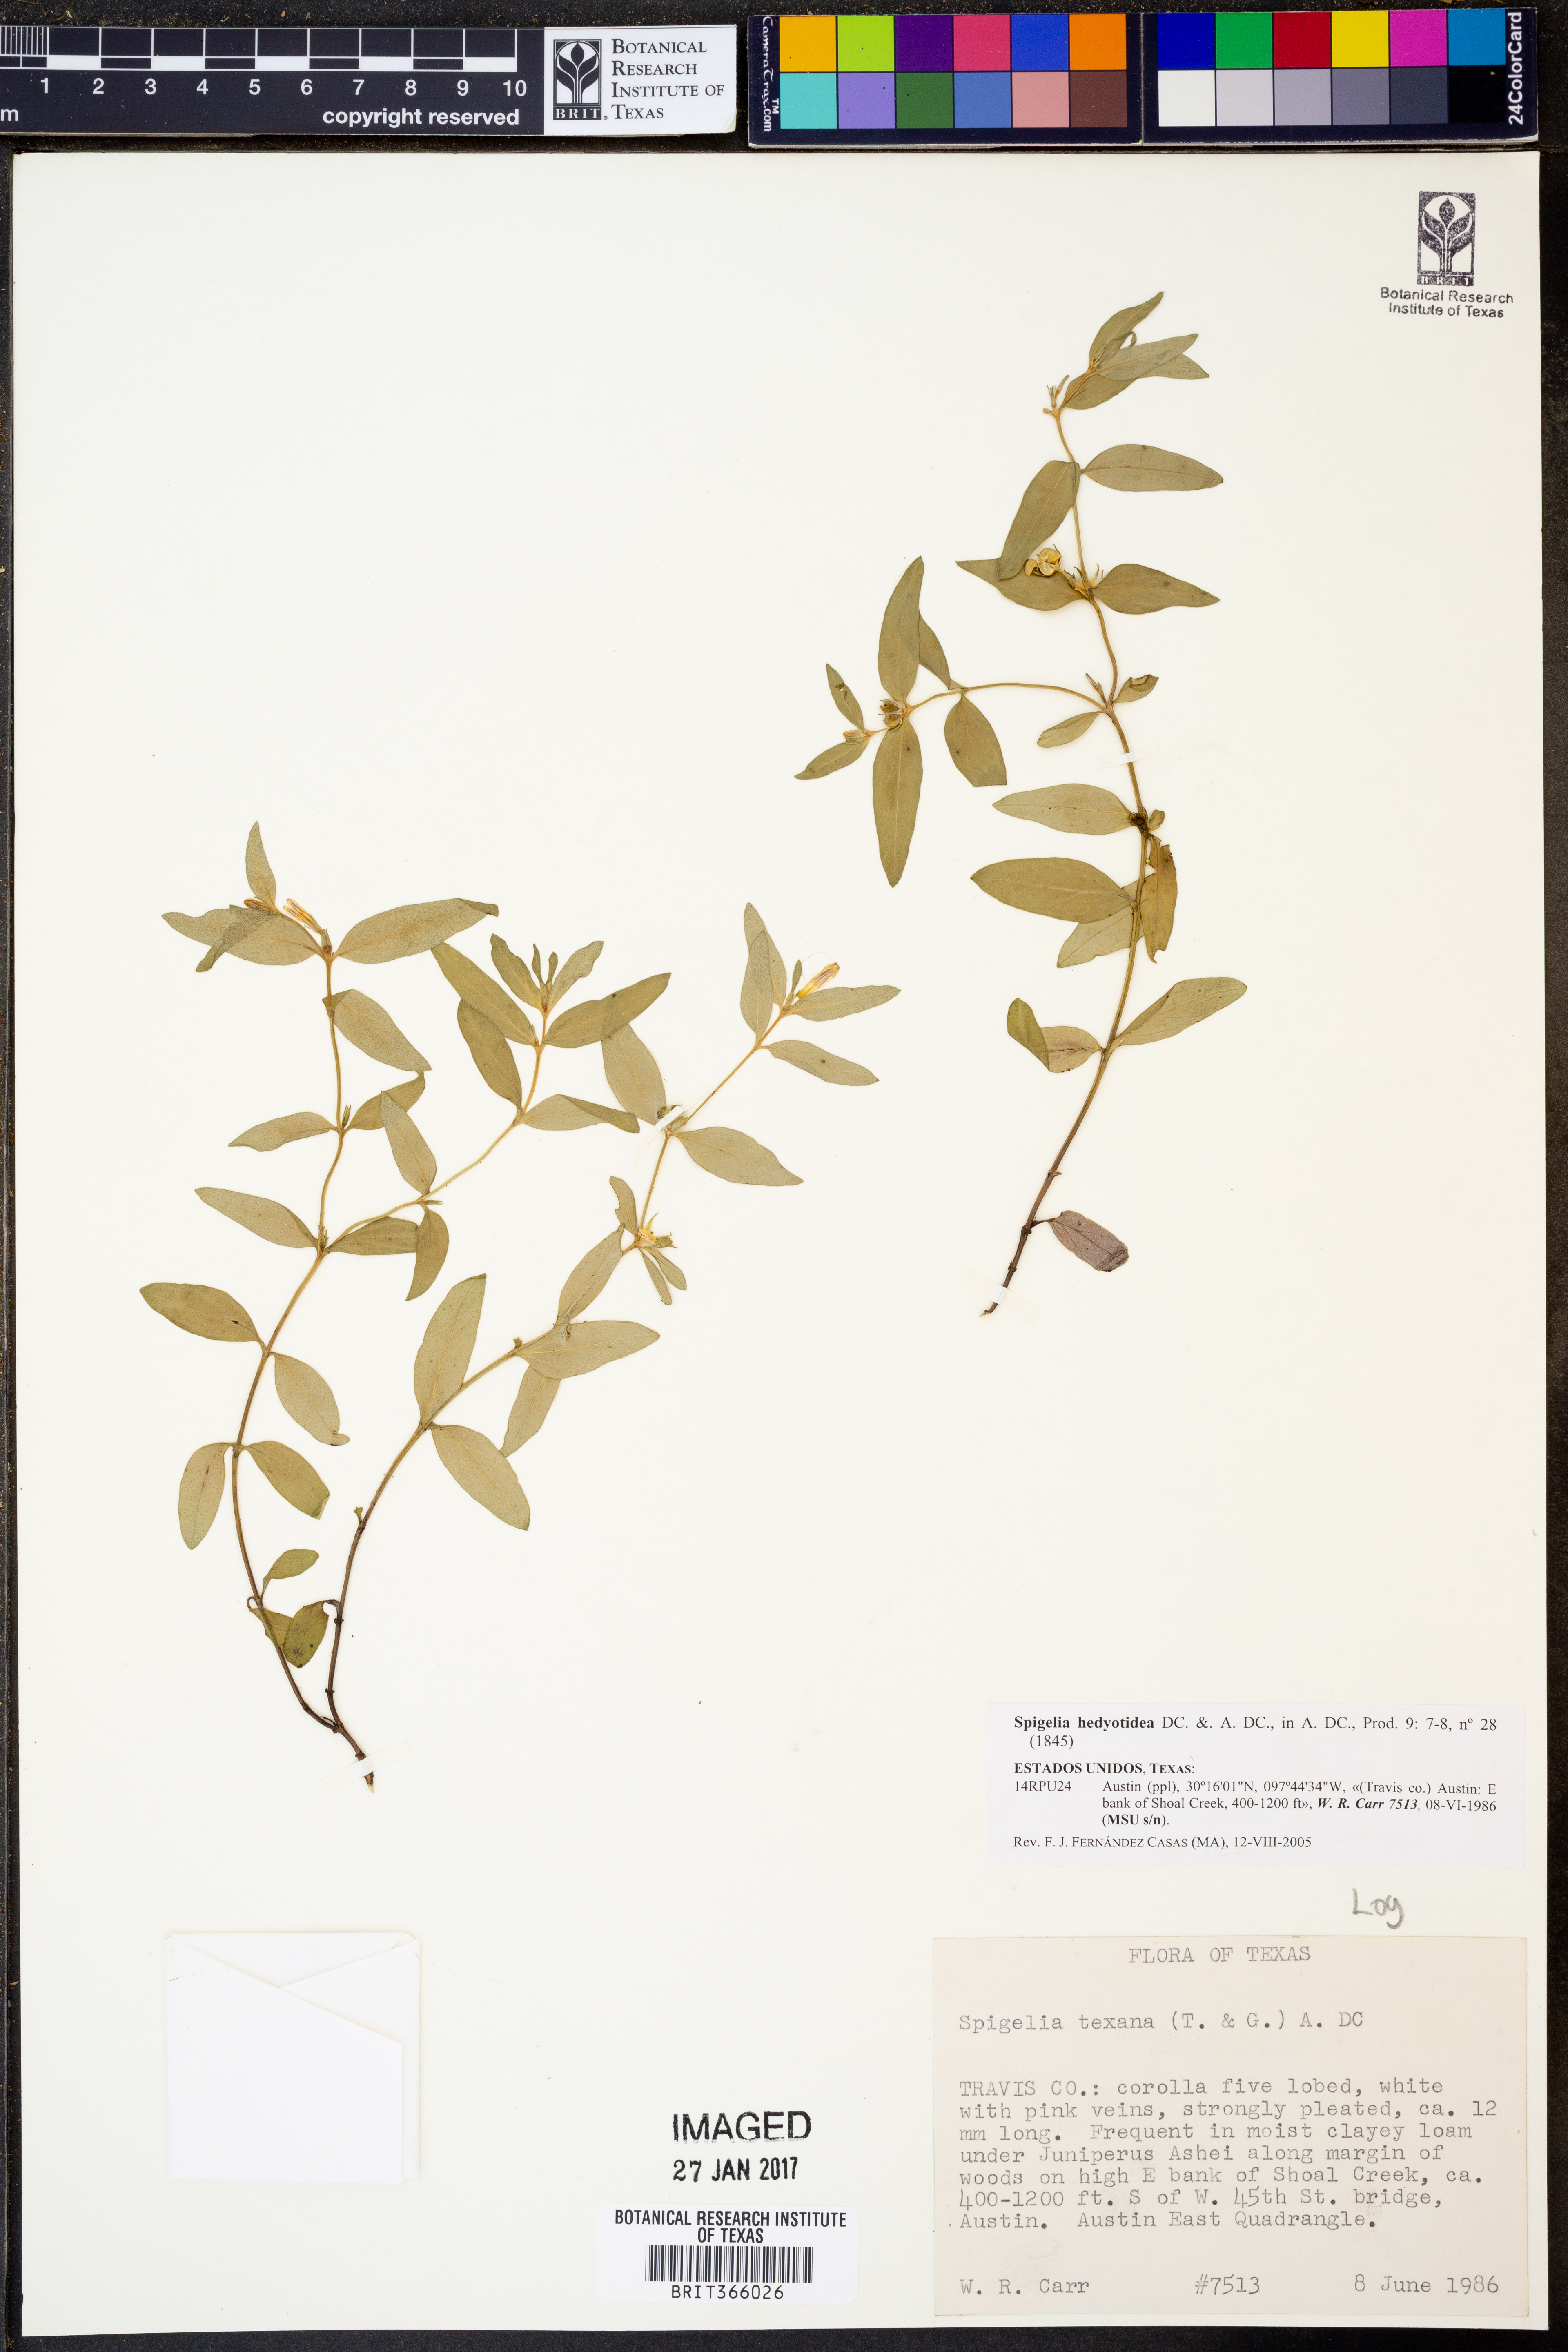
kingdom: Plantae
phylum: Tracheophyta
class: Magnoliopsida
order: Gentianales
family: Loganiaceae
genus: Spigelia
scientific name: Spigelia hedyotidea
